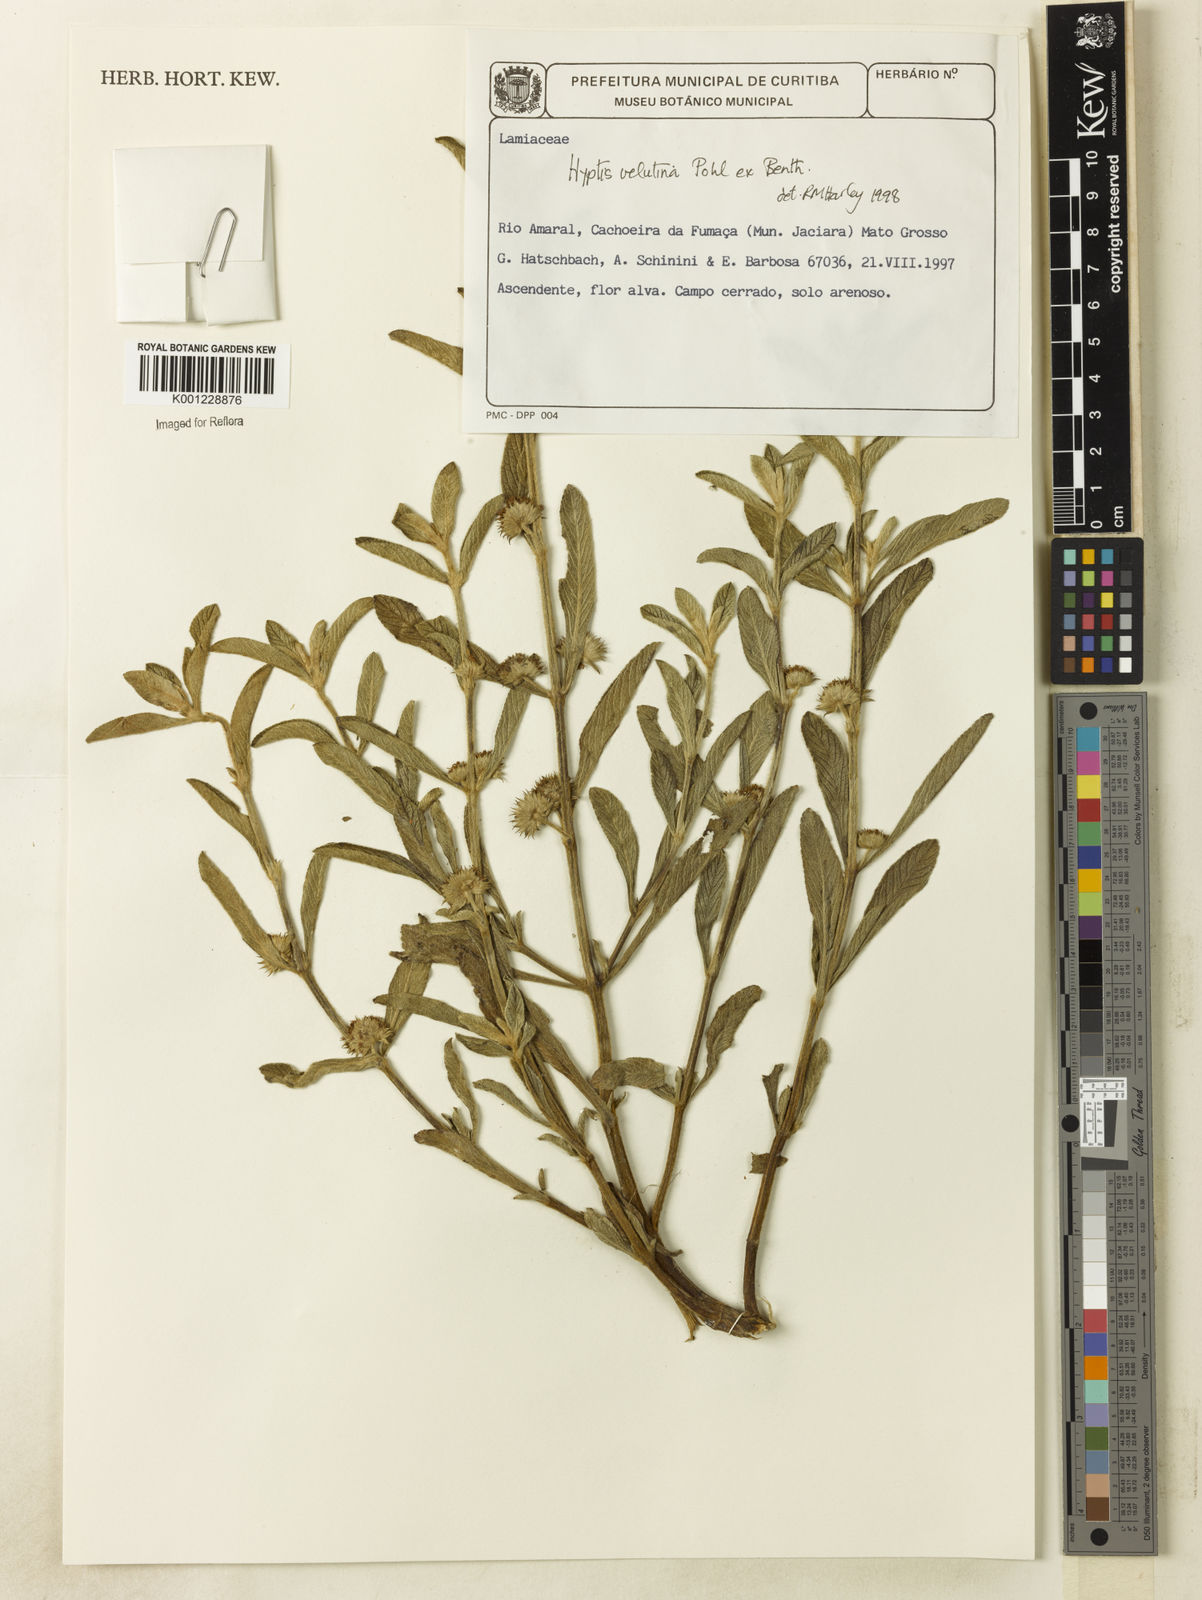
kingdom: Plantae
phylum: Tracheophyta
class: Magnoliopsida
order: Lamiales
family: Lamiaceae
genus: Hyptis
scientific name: Hyptis velutina
